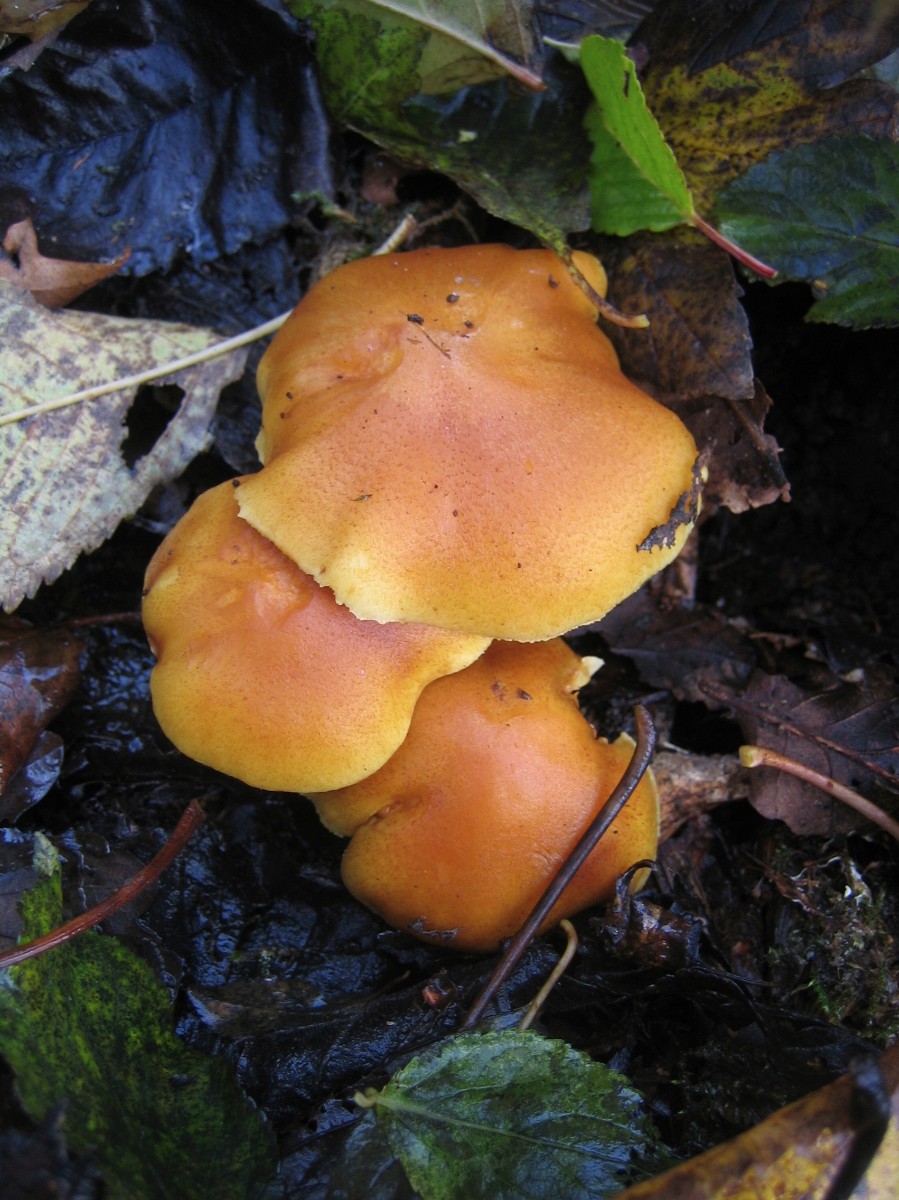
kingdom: Fungi
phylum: Basidiomycota
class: Agaricomycetes
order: Agaricales
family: Hymenogastraceae
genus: Gymnopilus
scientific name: Gymnopilus penetrans
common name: plettet flammehat
